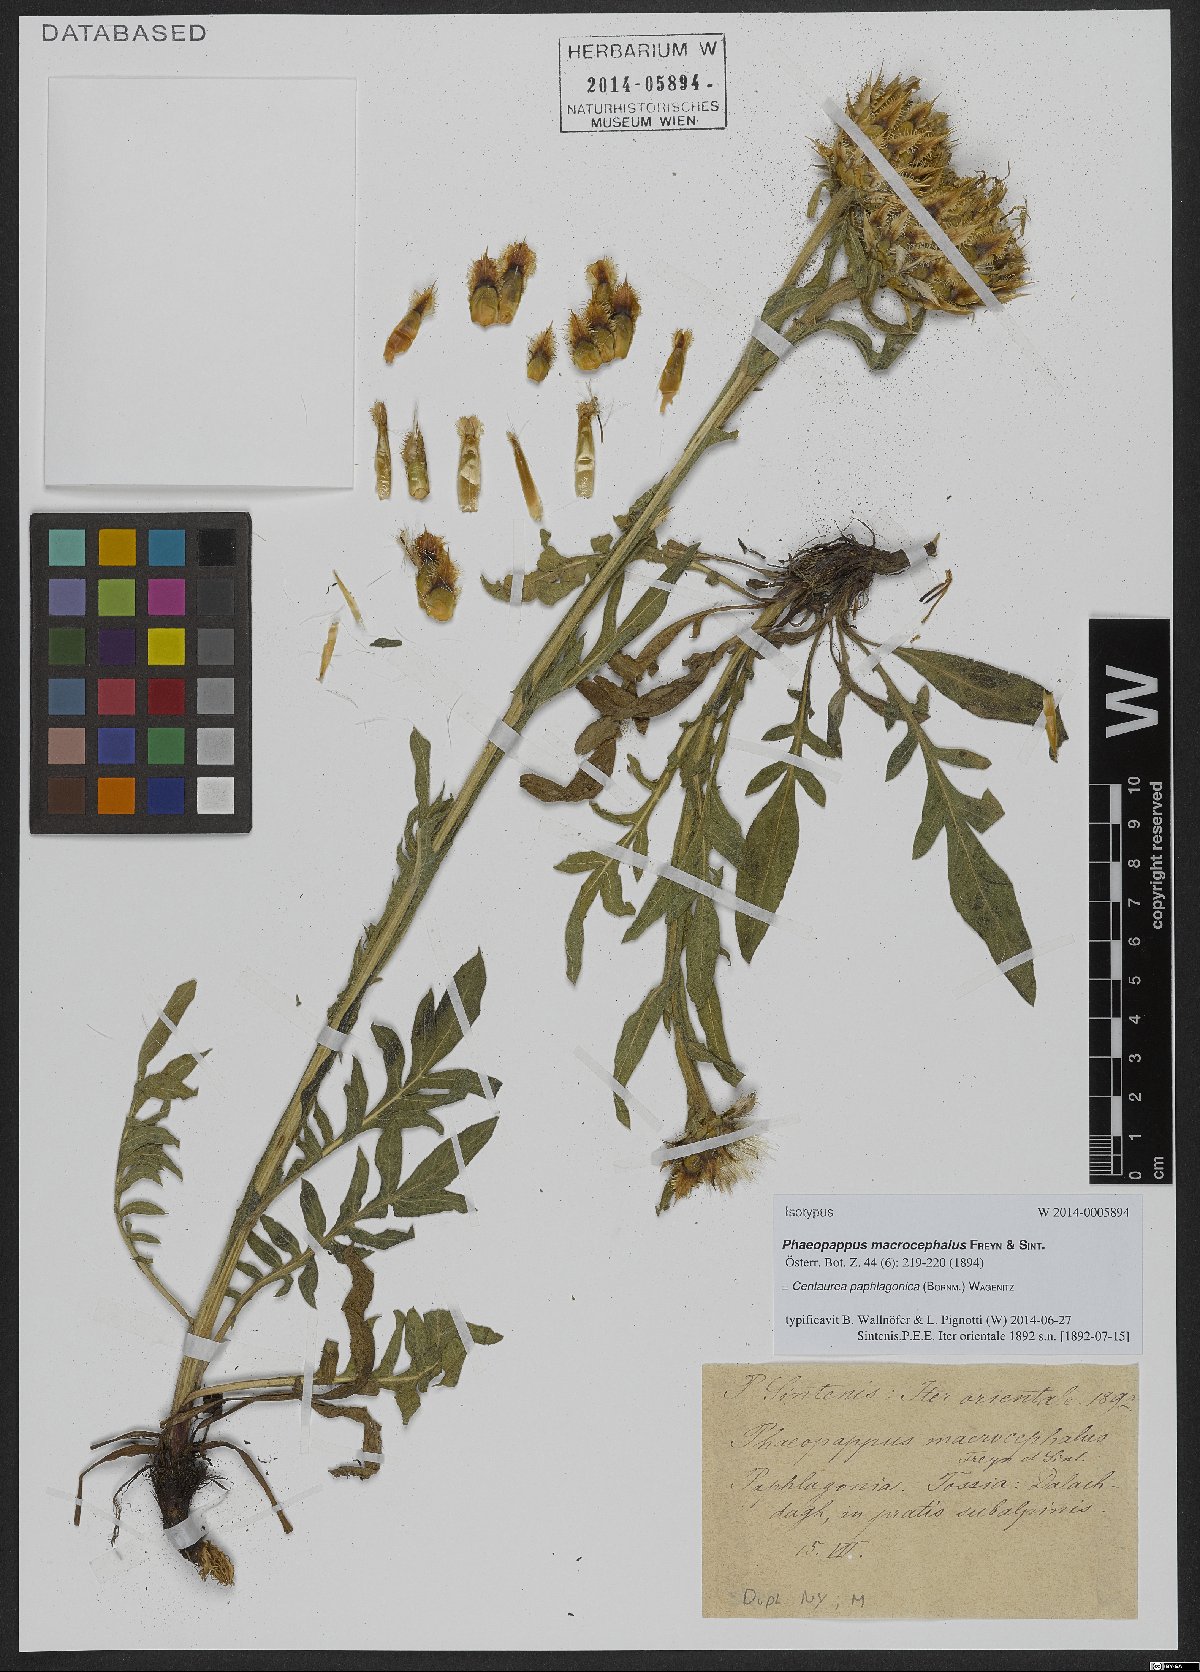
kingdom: Plantae
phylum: Tracheophyta
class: Magnoliopsida
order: Asterales
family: Asteraceae
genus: Centaurea
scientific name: Centaurea paphlagonica
